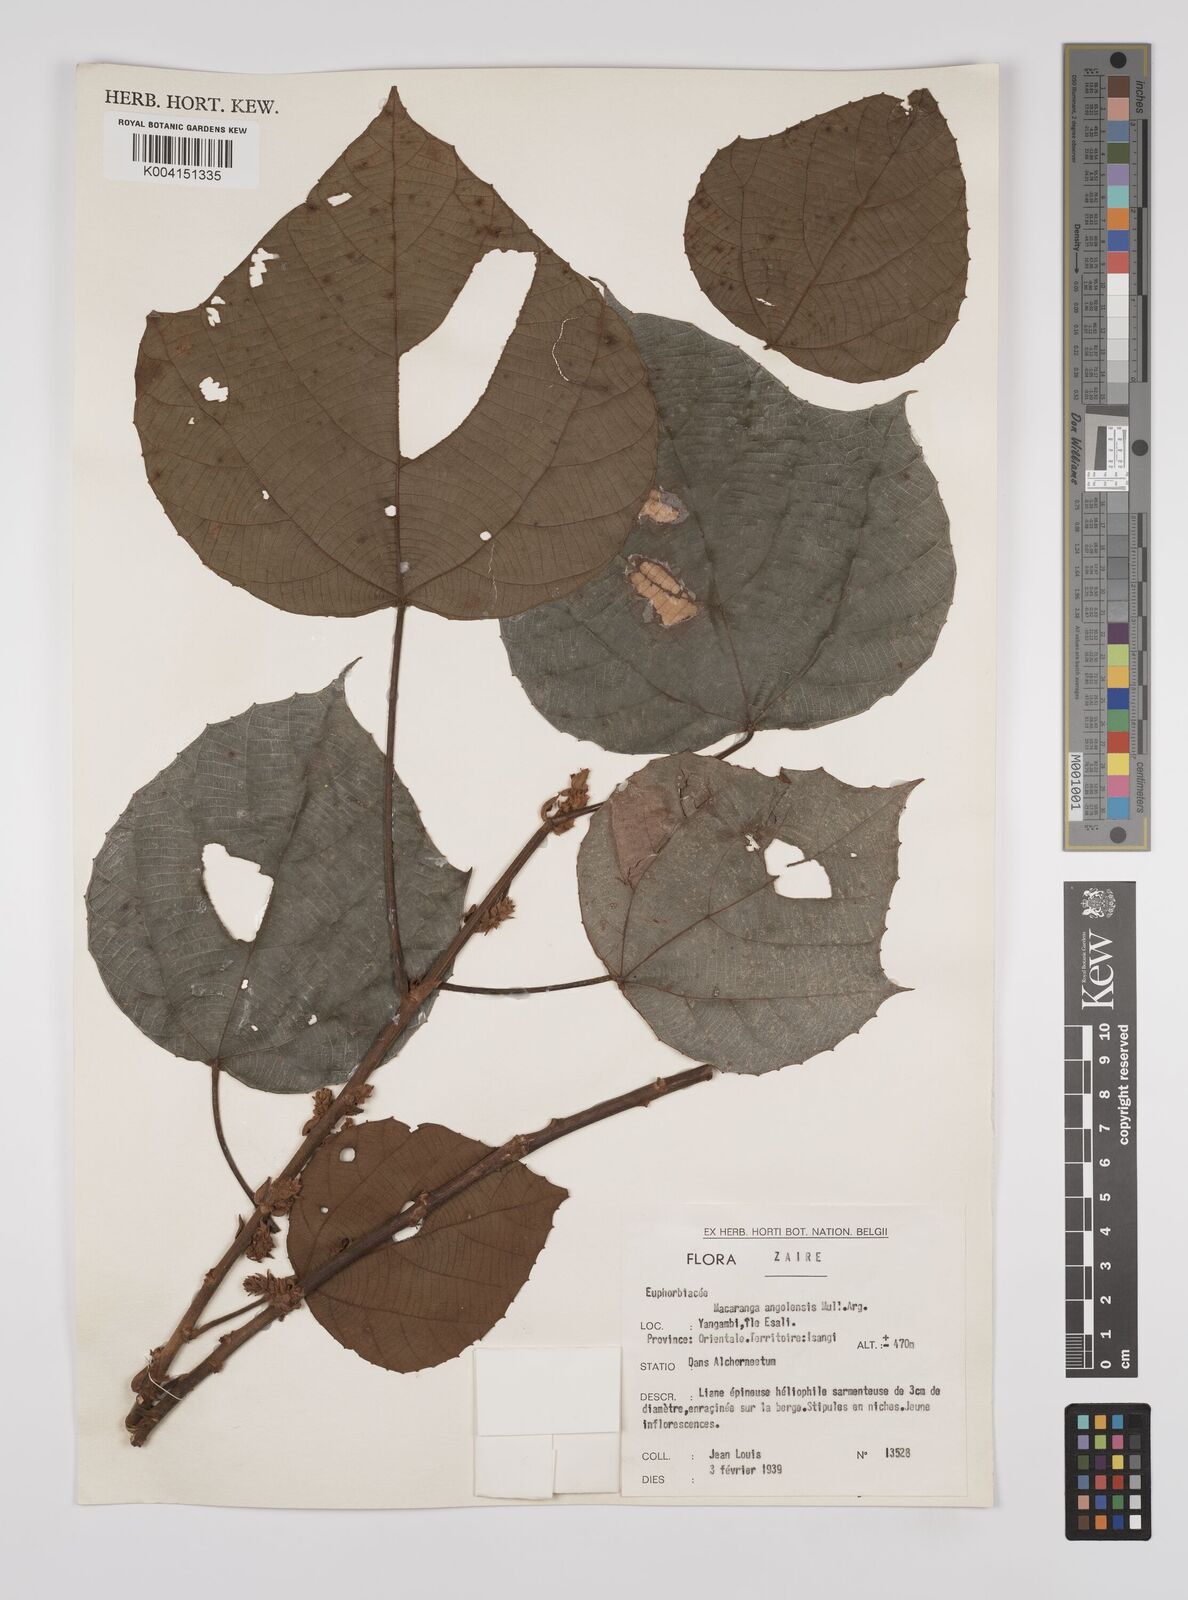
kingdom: Plantae
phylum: Tracheophyta
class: Magnoliopsida
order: Malpighiales
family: Euphorbiaceae
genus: Macaranga
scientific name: Macaranga angolensis
